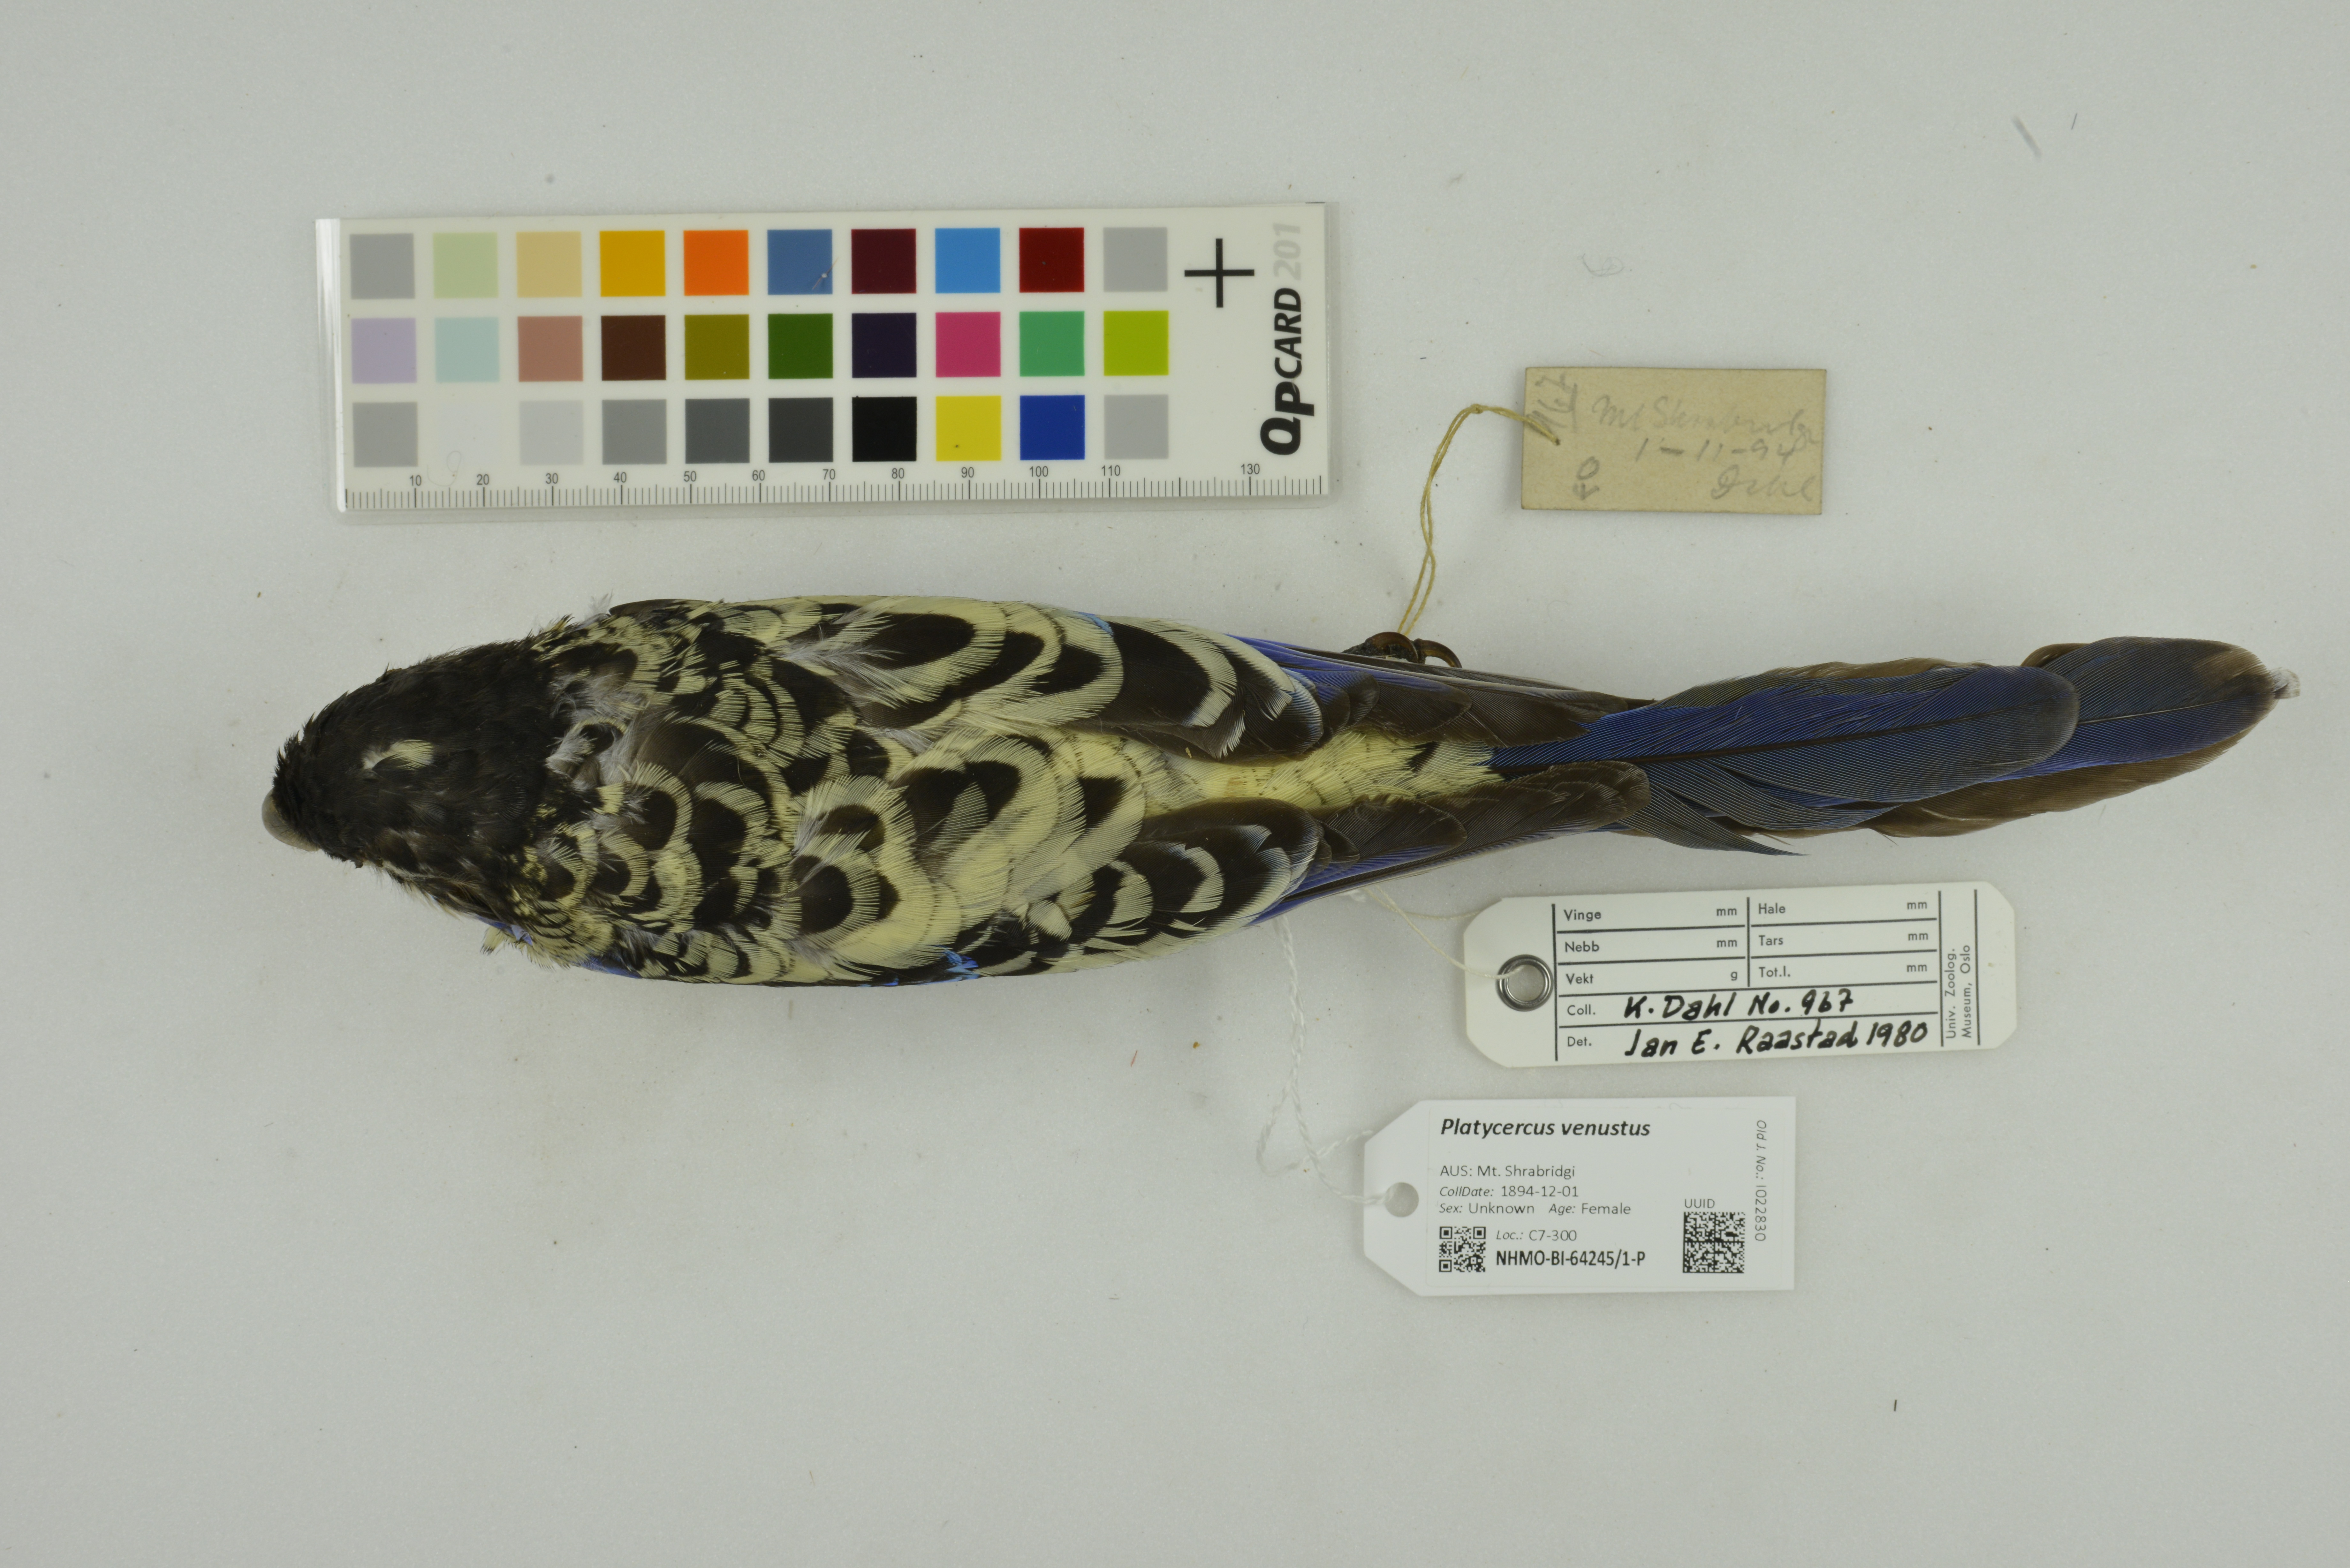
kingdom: Animalia
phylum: Chordata
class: Aves
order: Psittaciformes
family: Psittacidae
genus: Platycercus
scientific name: Platycercus venustus
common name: Northern rosella
